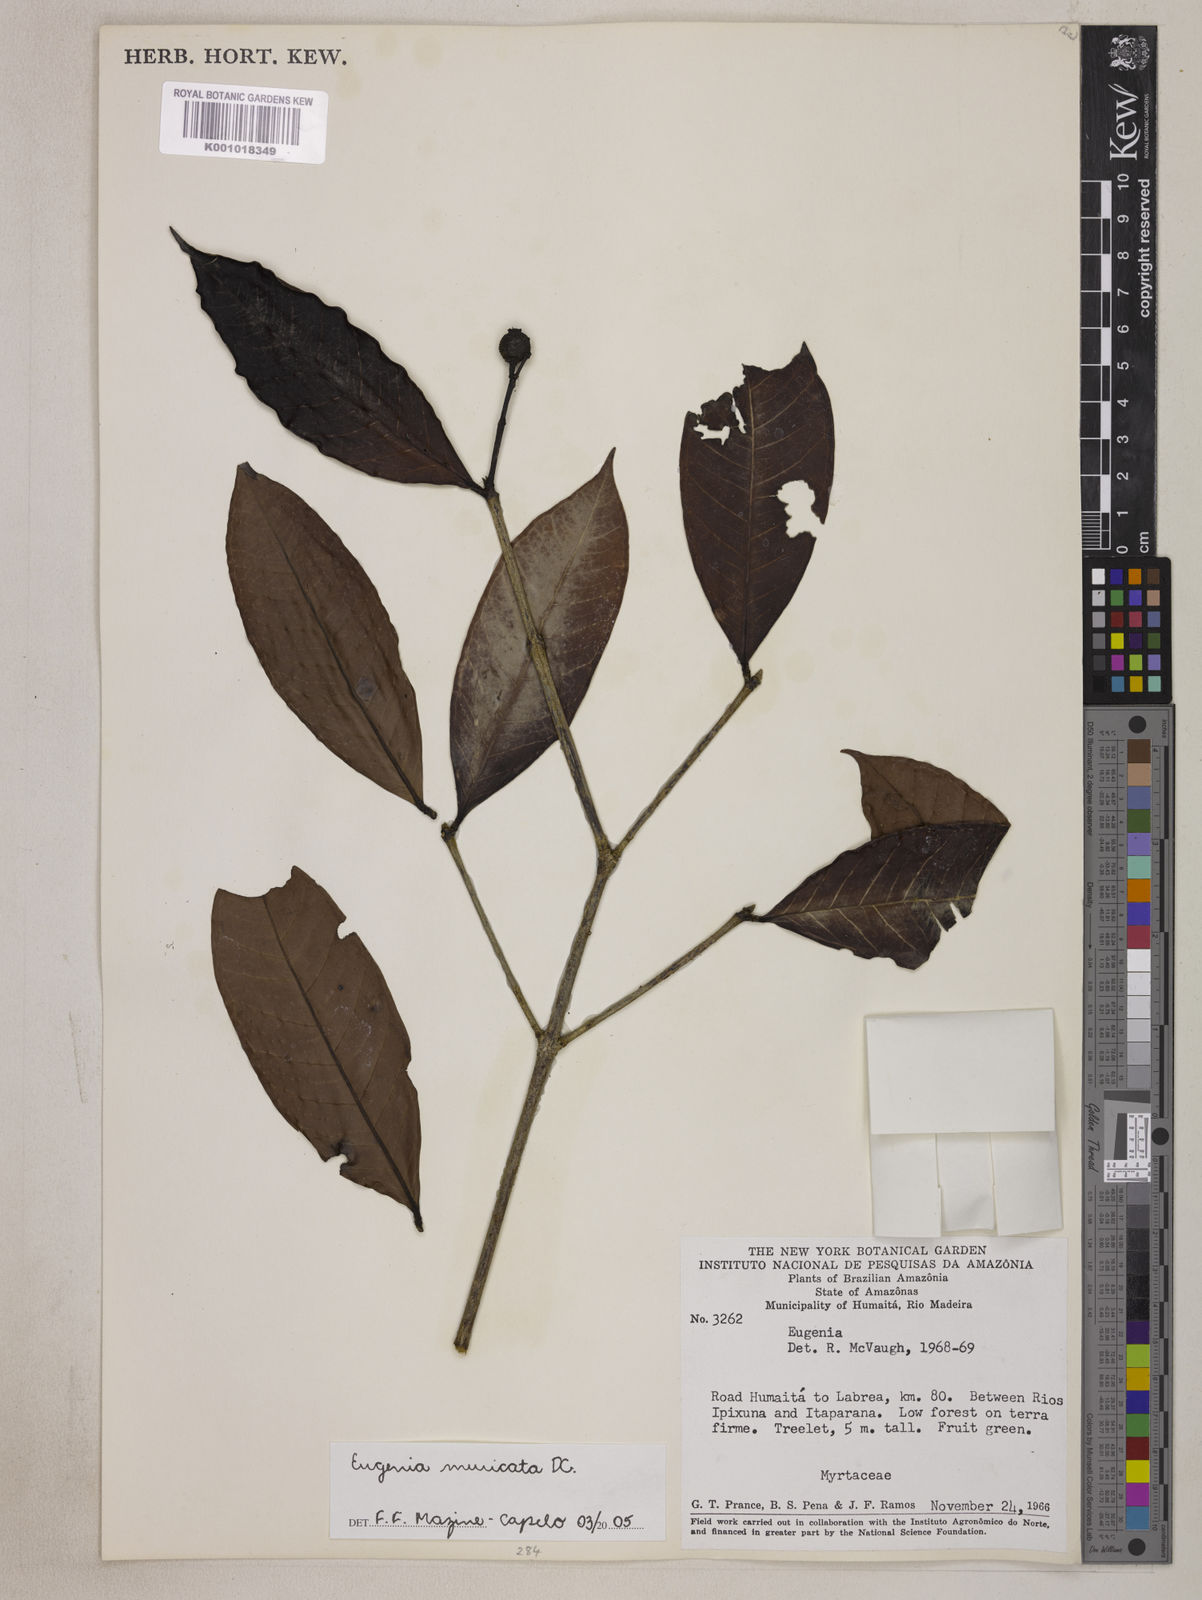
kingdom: Plantae
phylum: Tracheophyta
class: Magnoliopsida
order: Myrtales
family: Myrtaceae
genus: Eugenia
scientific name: Eugenia muricata
